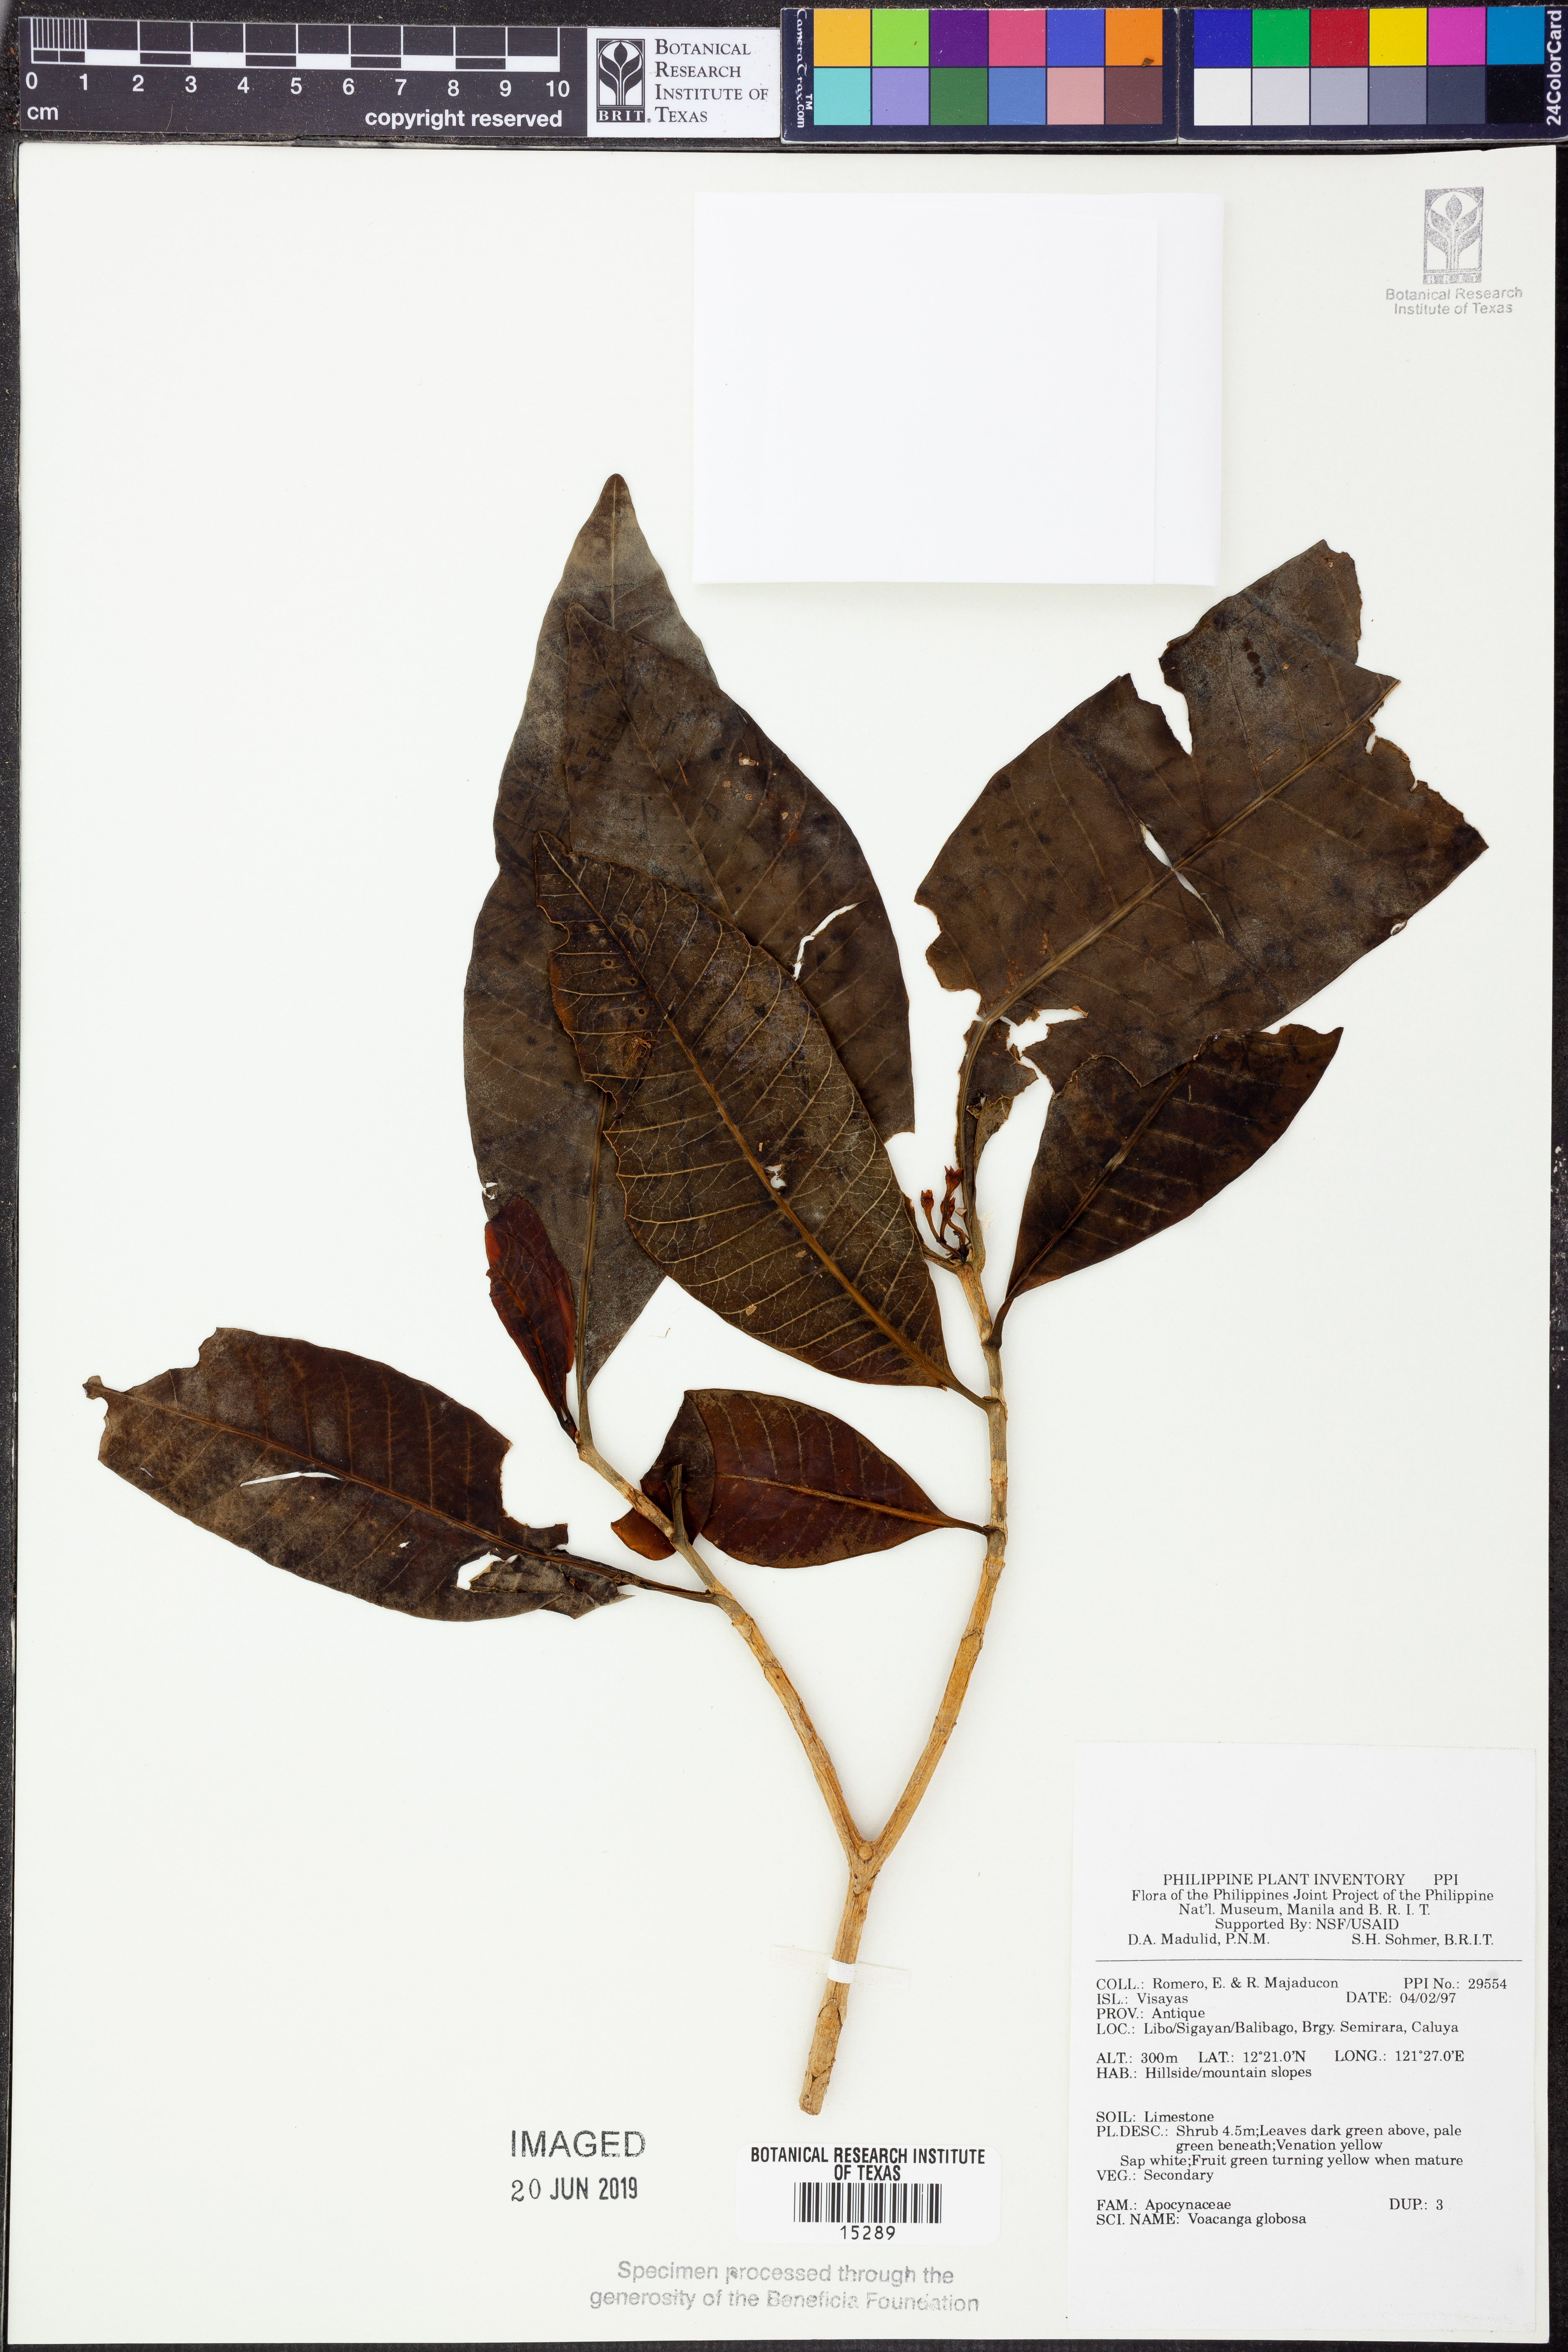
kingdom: Plantae
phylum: Tracheophyta
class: Magnoliopsida
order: Gentianales
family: Apocynaceae
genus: Voacanga
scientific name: Voacanga globosa
